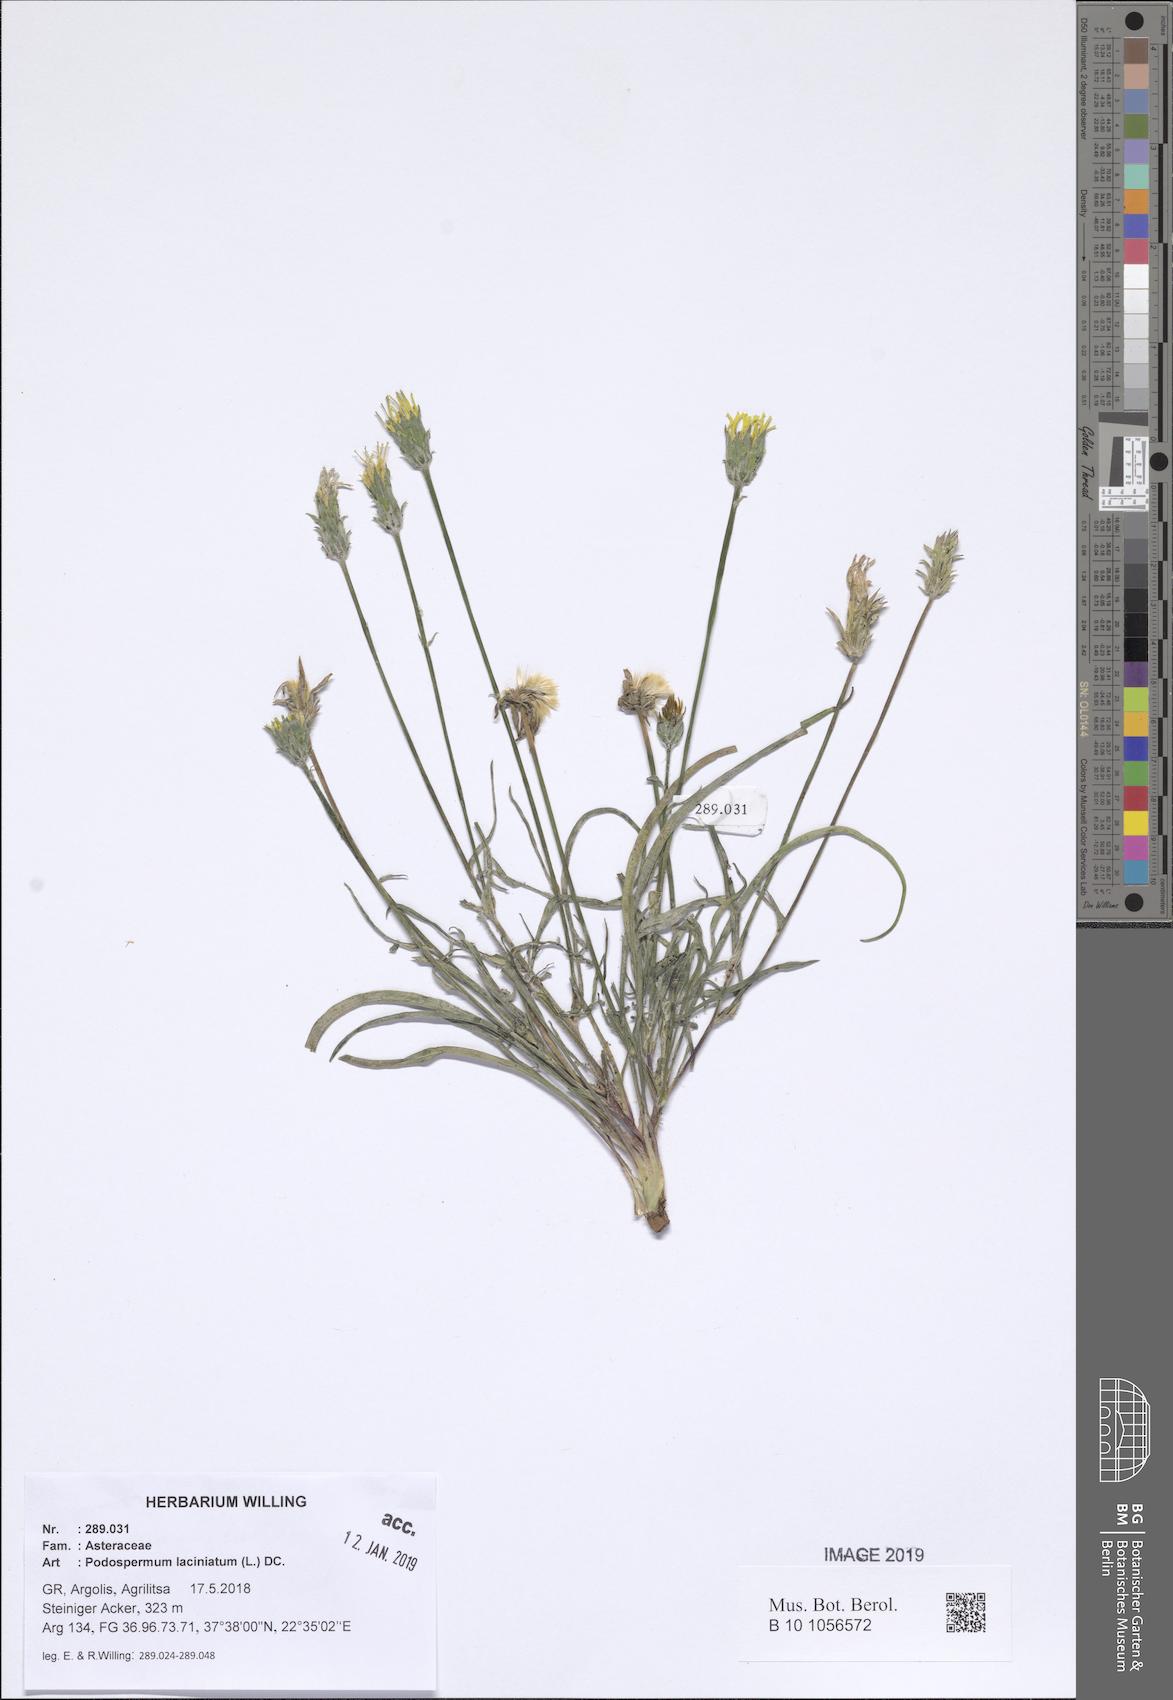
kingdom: Plantae
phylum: Tracheophyta
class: Magnoliopsida
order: Asterales
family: Asteraceae
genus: Scorzonera
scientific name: Scorzonera laciniata
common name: Cutleaf vipergrass
